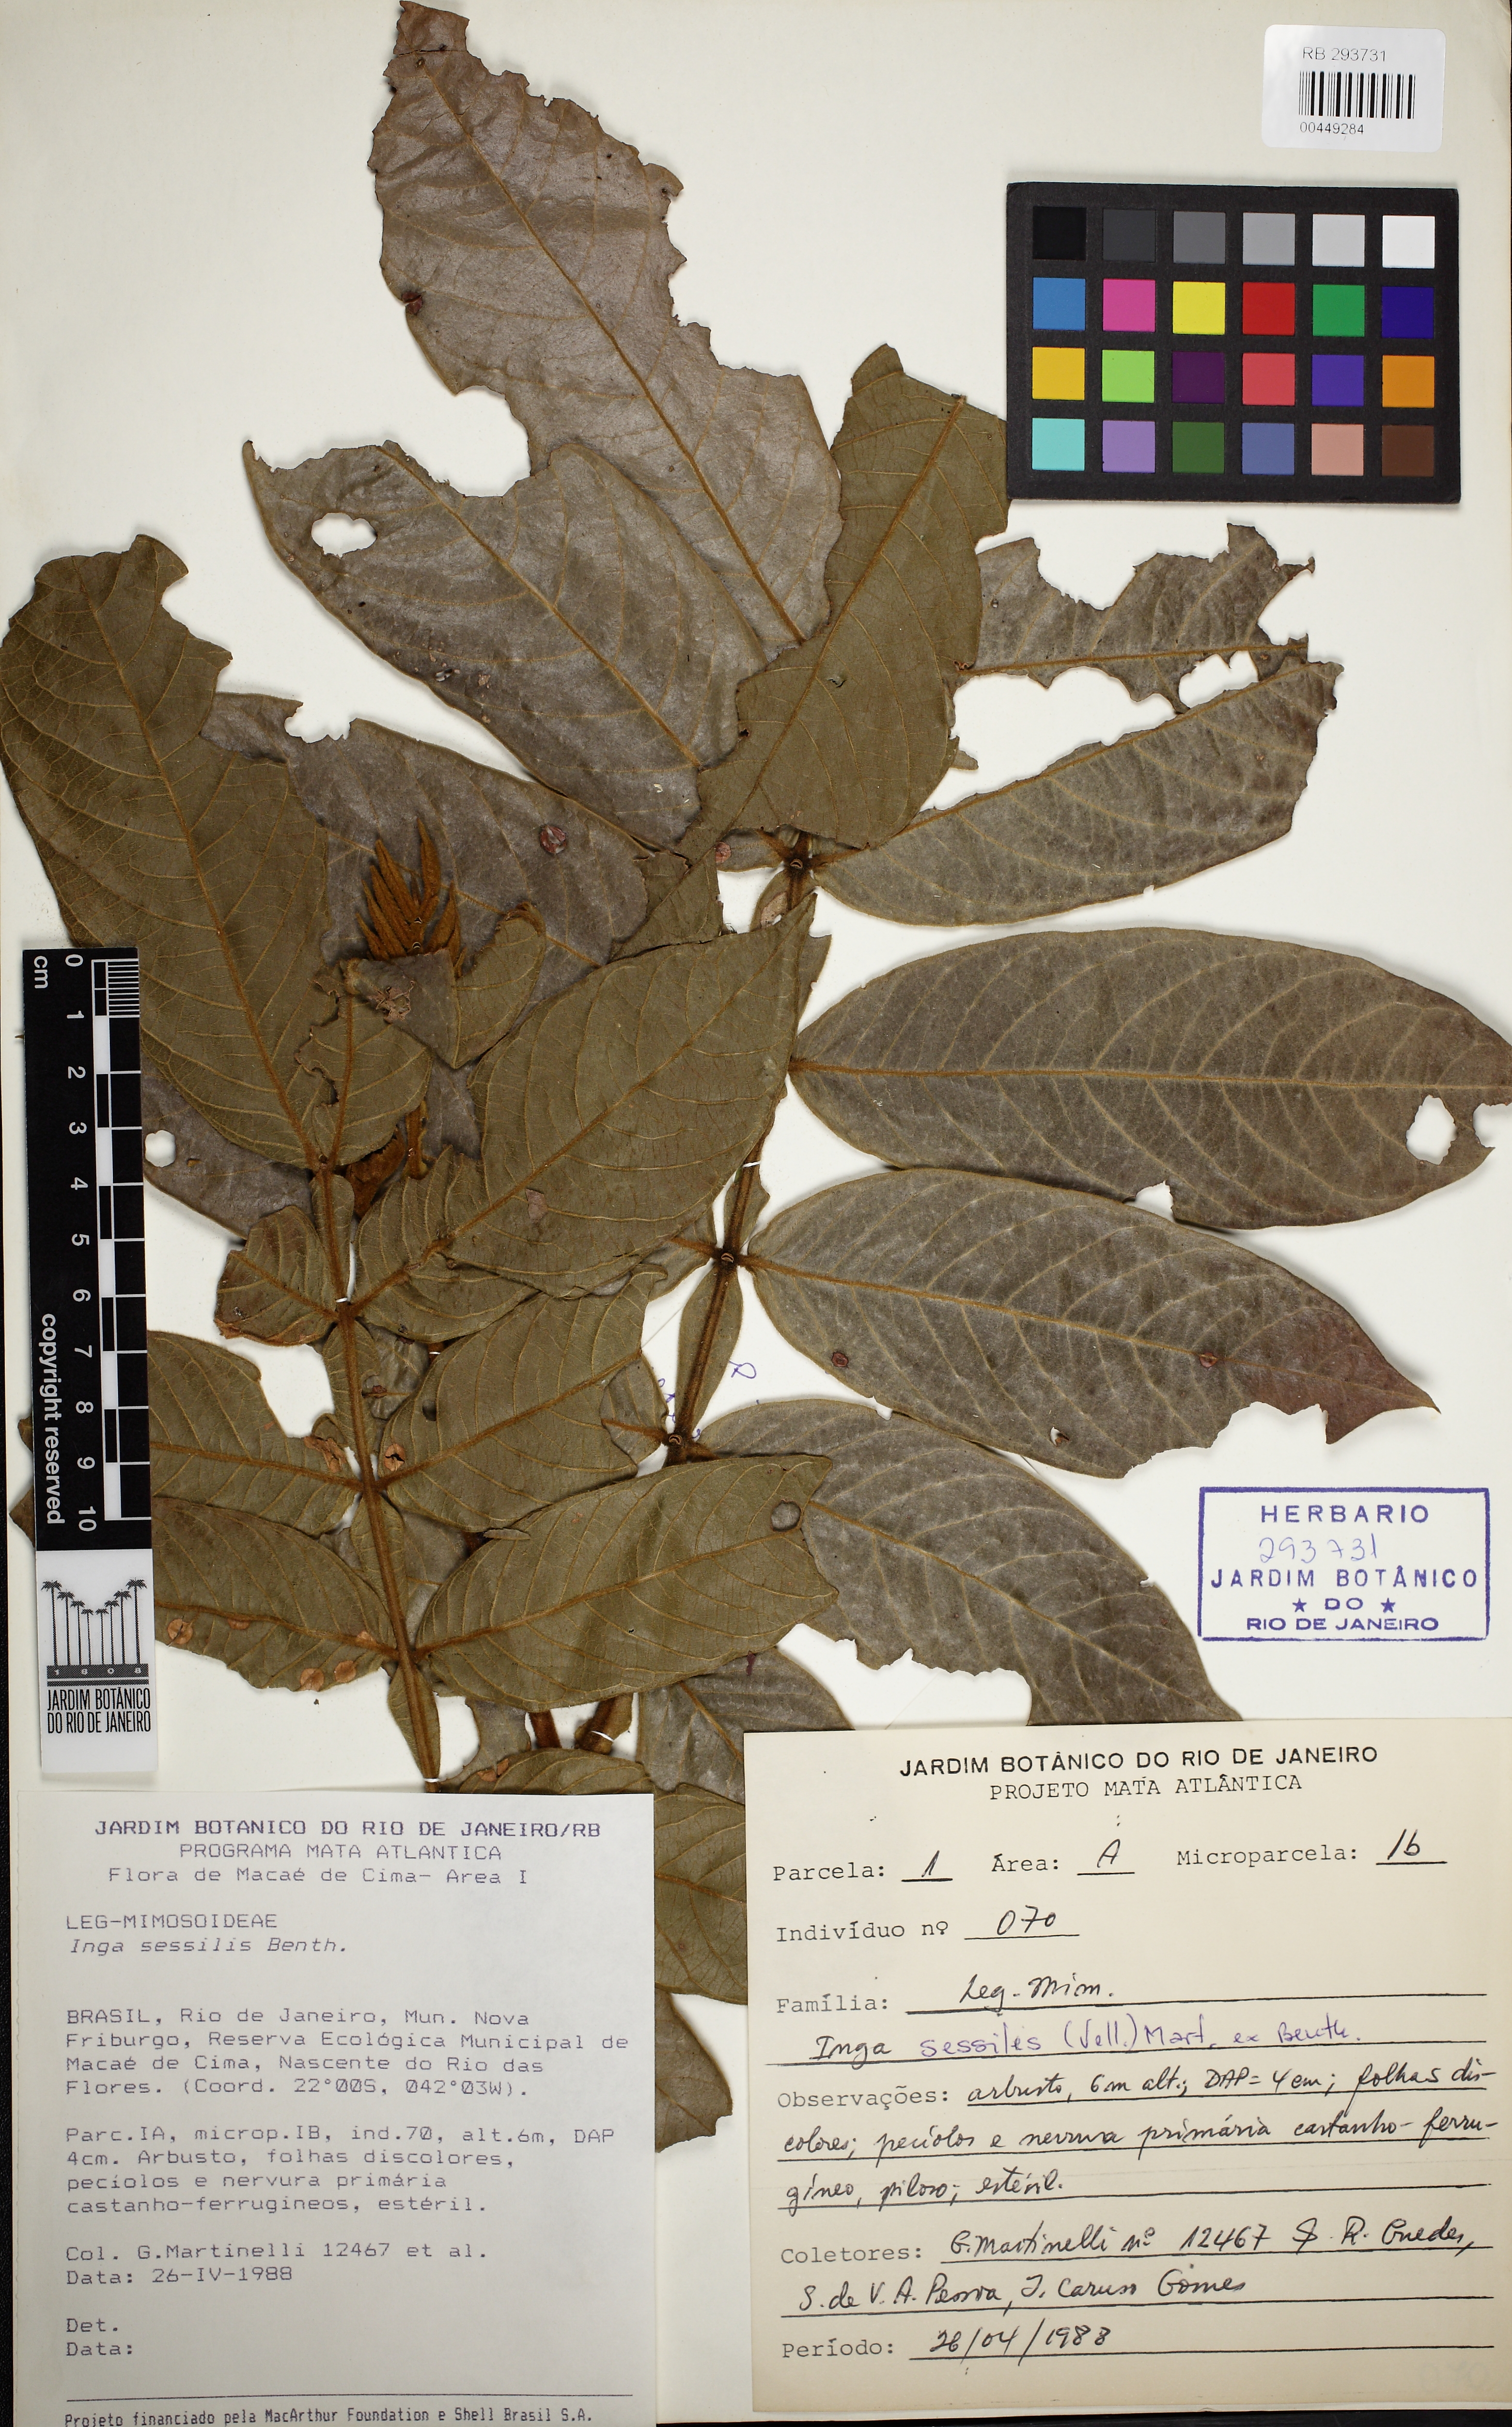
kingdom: Plantae
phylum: Tracheophyta
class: Magnoliopsida
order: Fabales
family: Fabaceae
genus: Inga
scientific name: Inga sessilis
